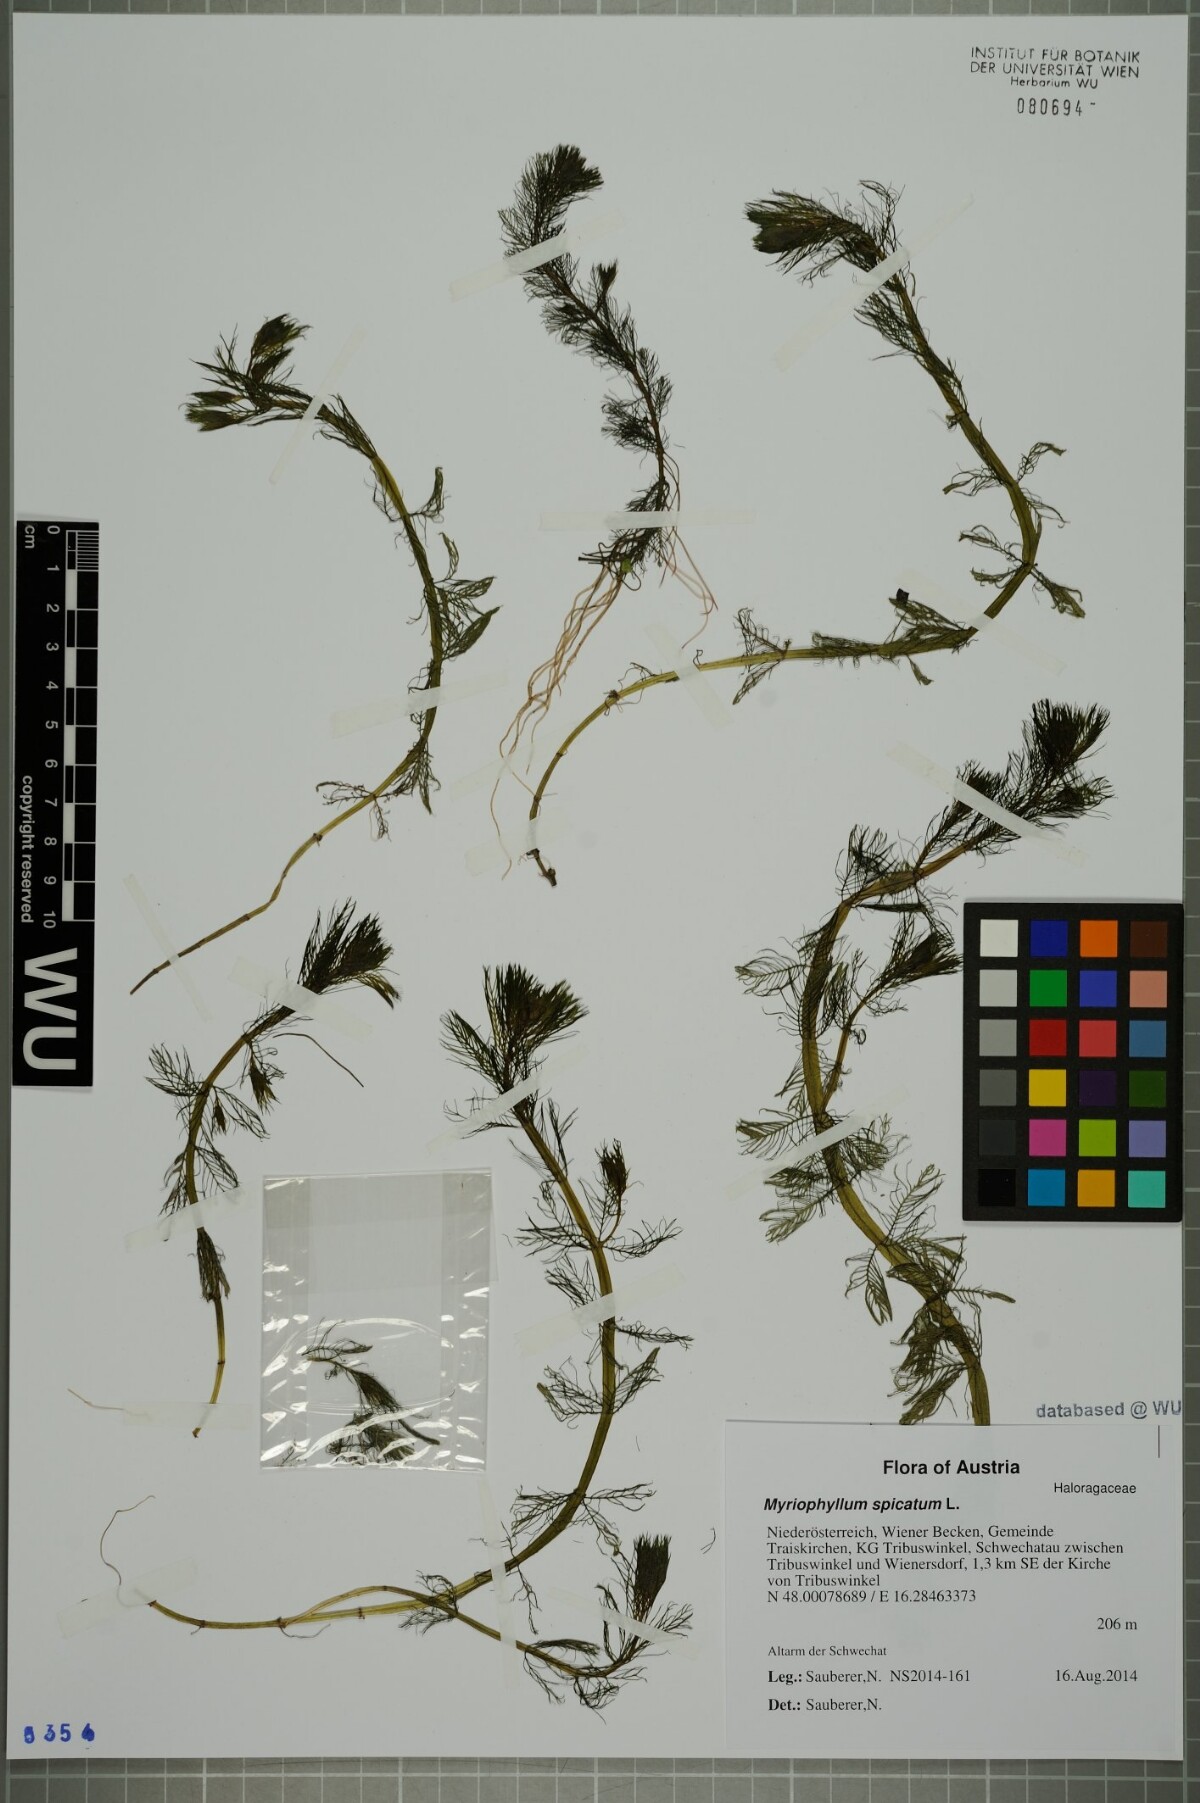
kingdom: Plantae
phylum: Tracheophyta
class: Magnoliopsida
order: Saxifragales
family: Haloragaceae
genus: Myriophyllum
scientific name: Myriophyllum spicatum
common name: Spiked water-milfoil
